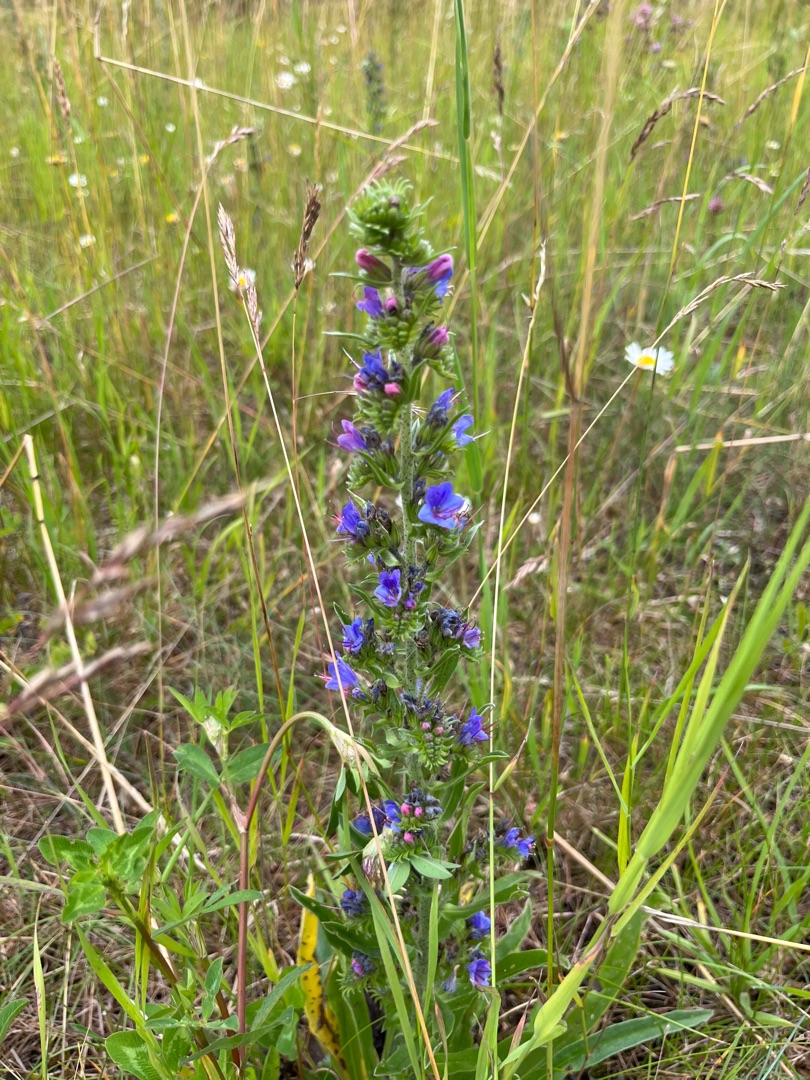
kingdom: Plantae
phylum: Tracheophyta
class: Magnoliopsida
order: Boraginales
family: Boraginaceae
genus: Echium
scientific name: Echium vulgare
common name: Slangehoved
